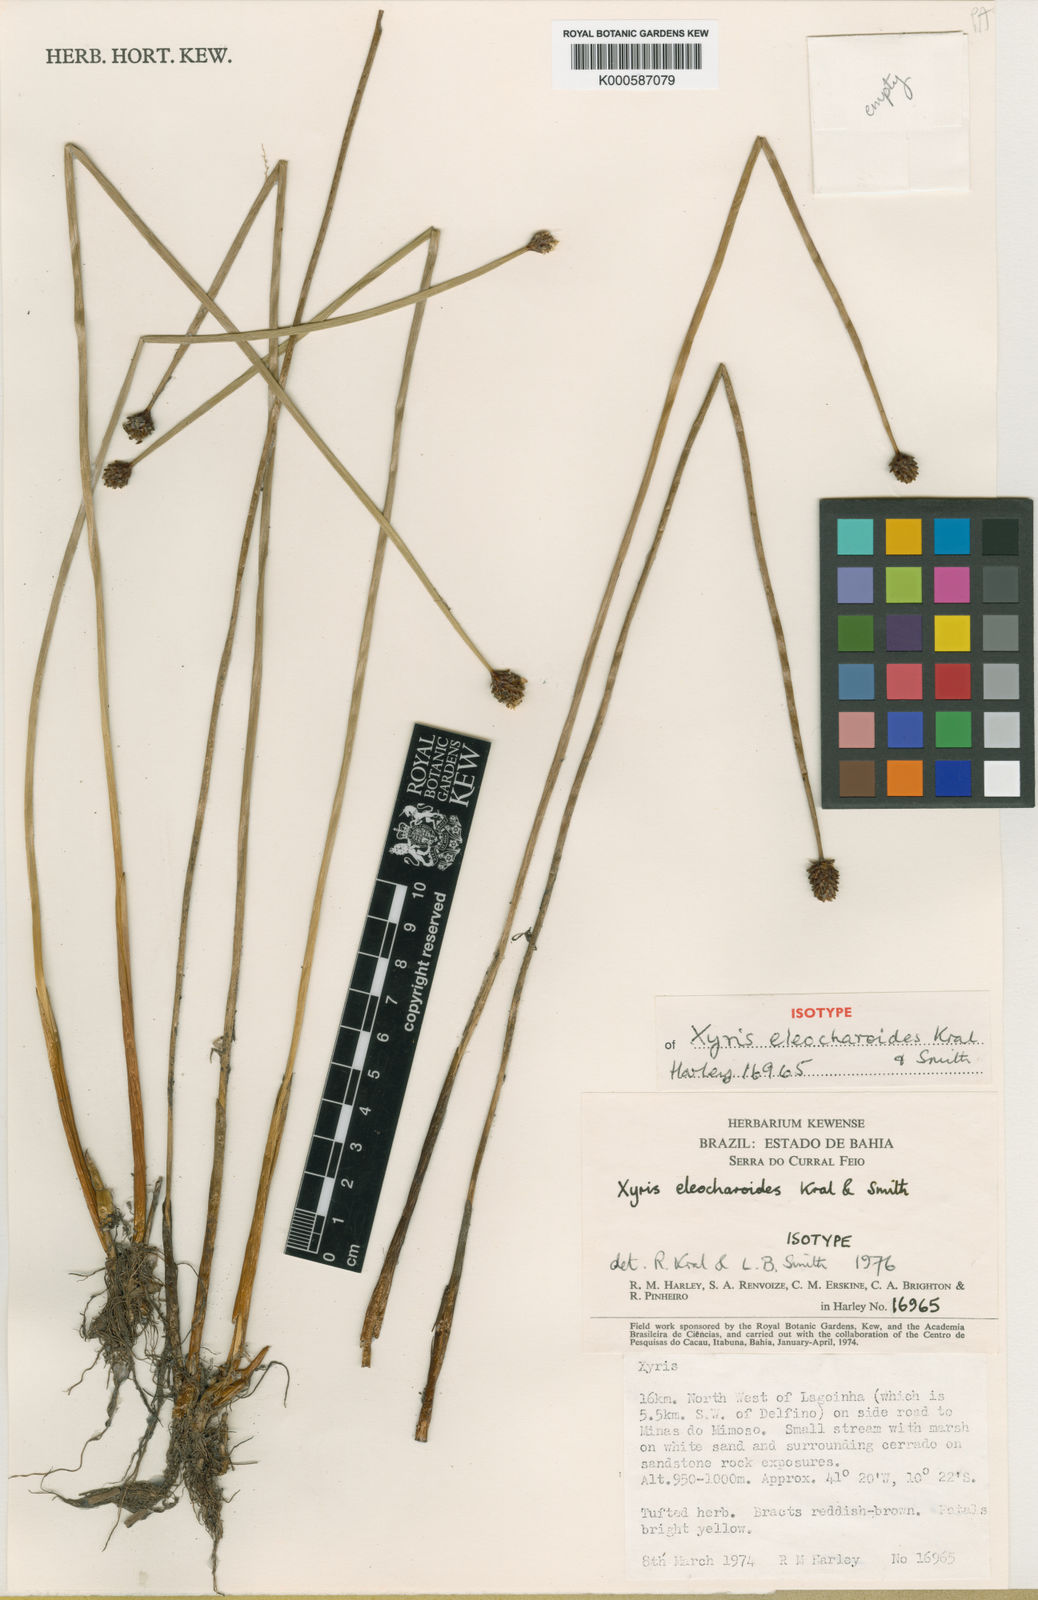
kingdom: Plantae
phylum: Tracheophyta
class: Liliopsida
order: Poales
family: Xyridaceae
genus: Xyris
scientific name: Xyris eleocharoides
